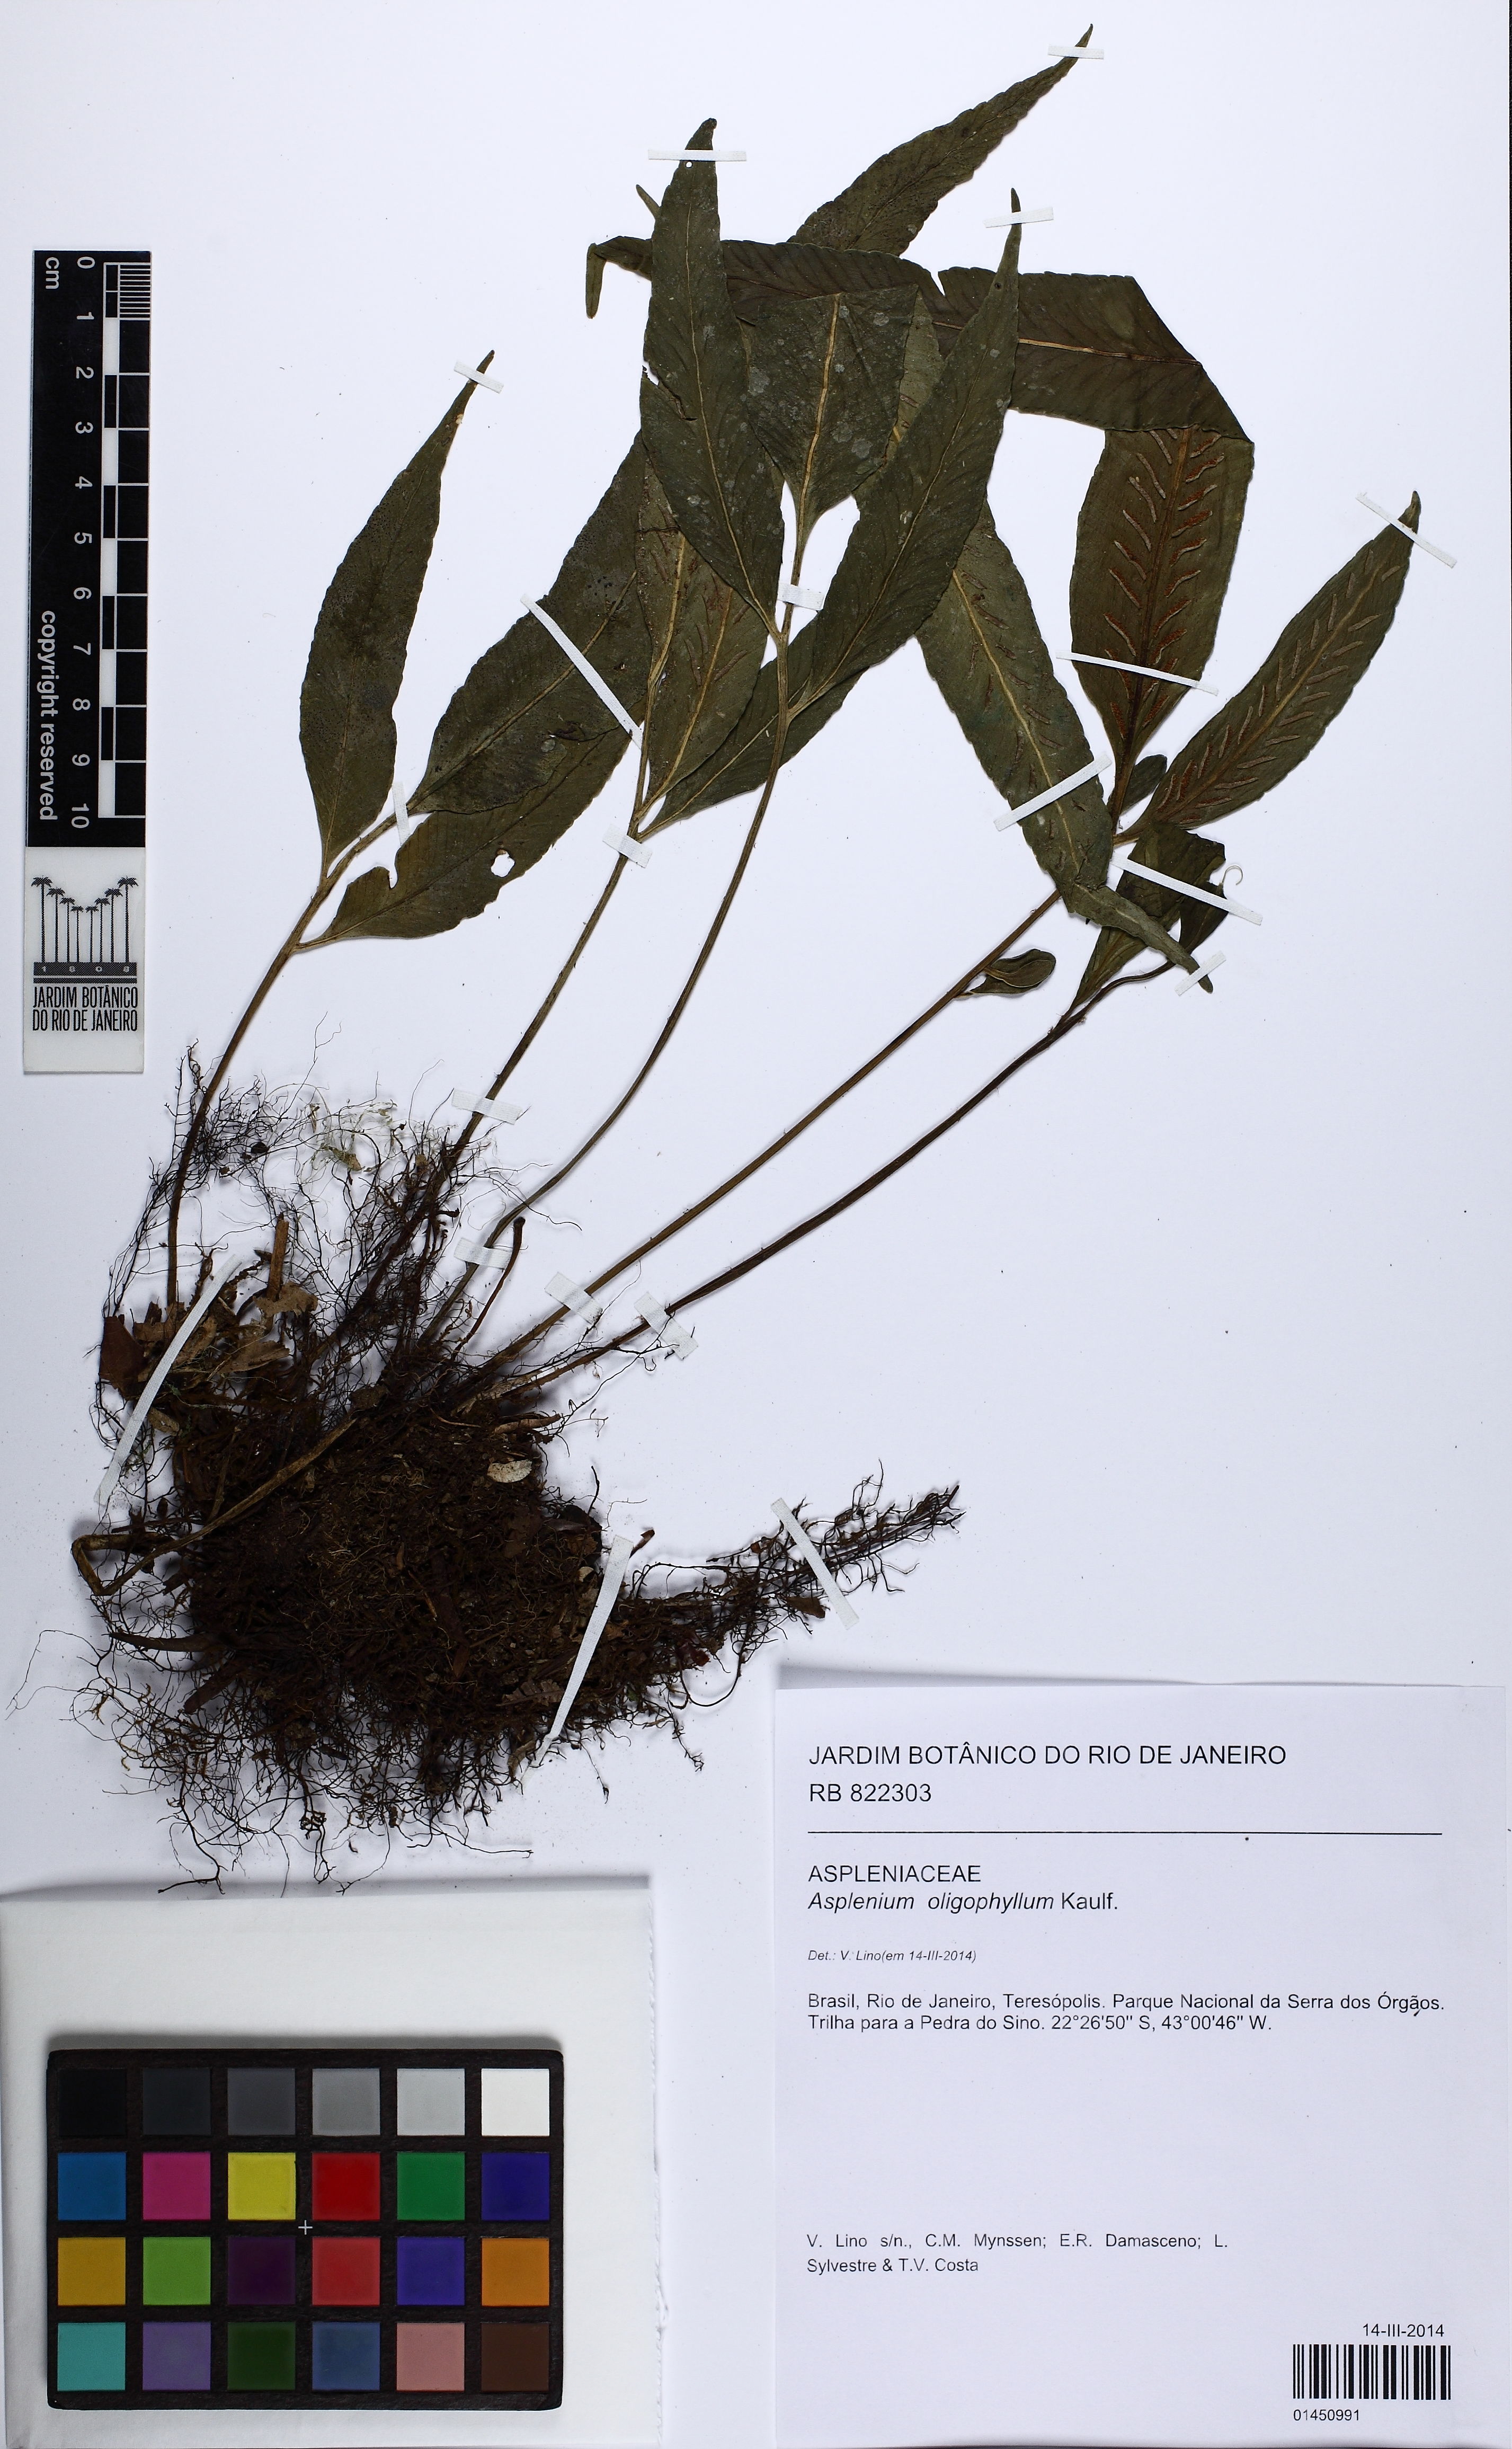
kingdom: Plantae
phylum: Tracheophyta
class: Polypodiopsida
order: Polypodiales
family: Aspleniaceae
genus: Asplenium
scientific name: Asplenium oligophyllum
